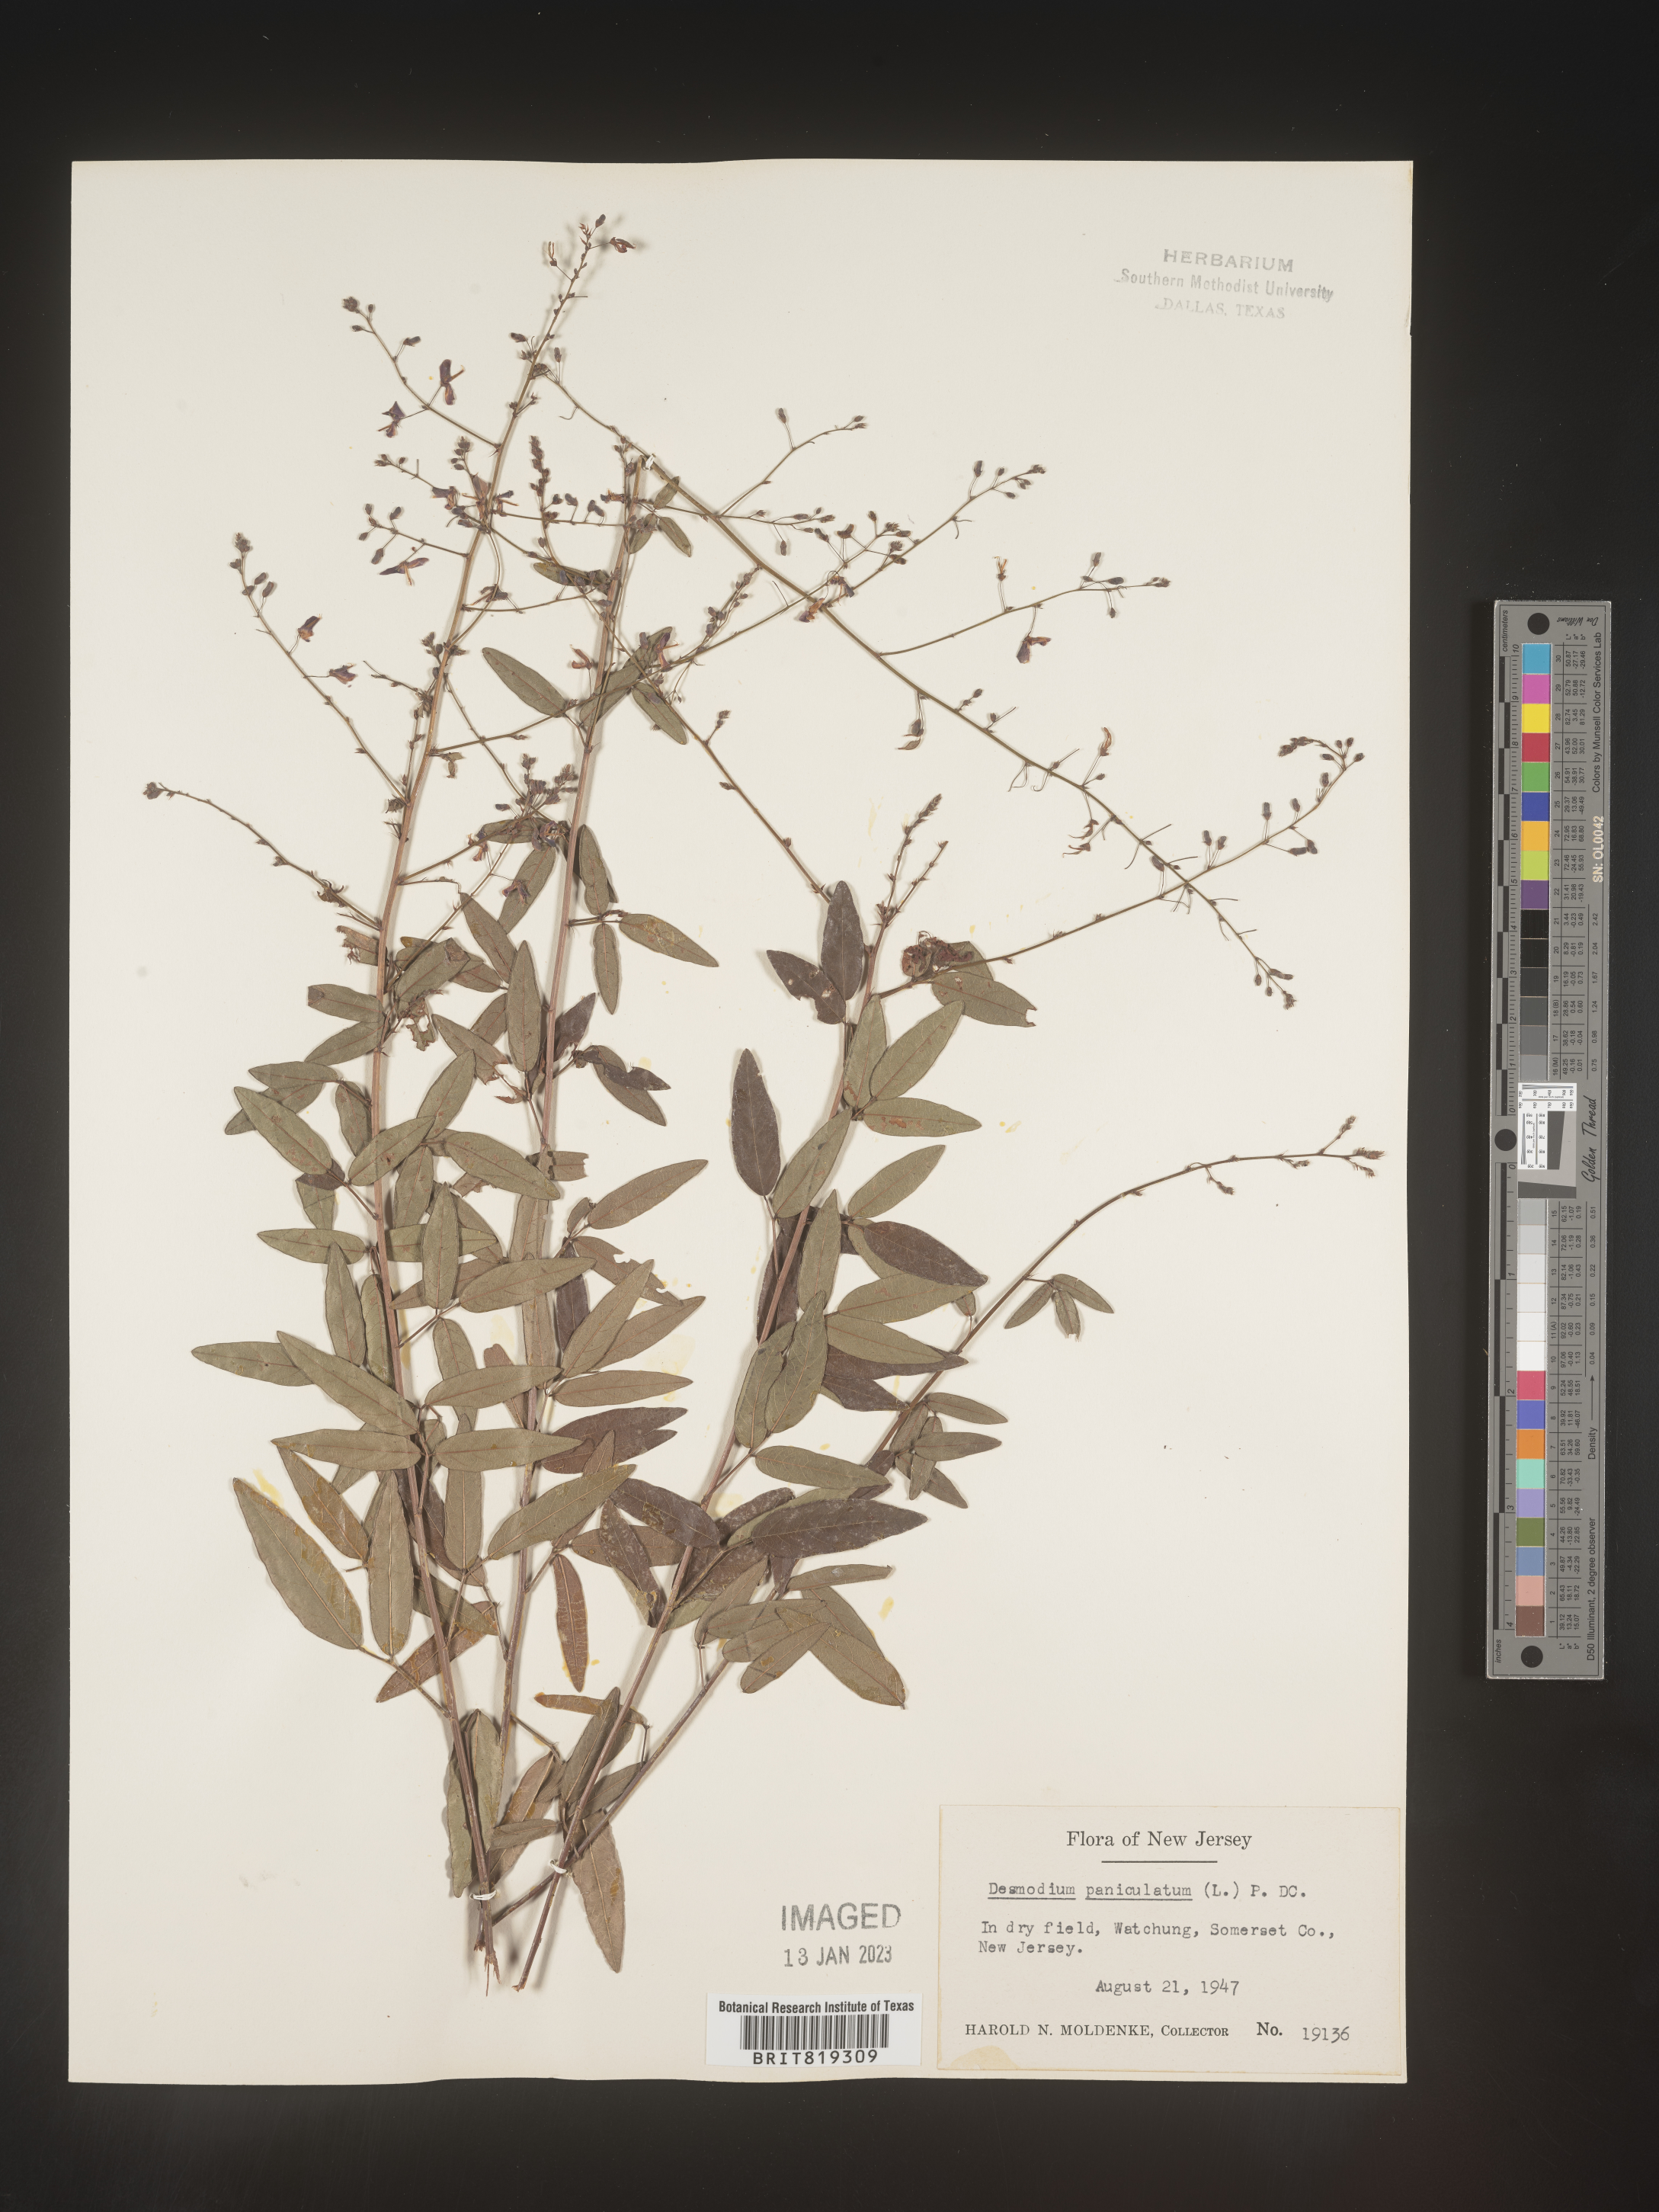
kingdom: Plantae
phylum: Tracheophyta
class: Magnoliopsida
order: Fabales
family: Fabaceae
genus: Desmodium
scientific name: Desmodium paniculatum
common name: Panicled tick-clover
